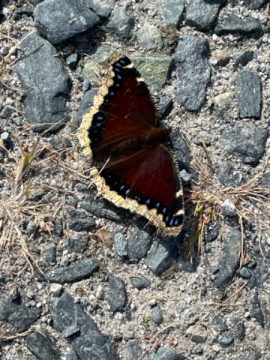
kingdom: Animalia
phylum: Arthropoda
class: Insecta
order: Lepidoptera
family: Nymphalidae
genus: Nymphalis
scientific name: Nymphalis antiopa
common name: Mourning Cloak
